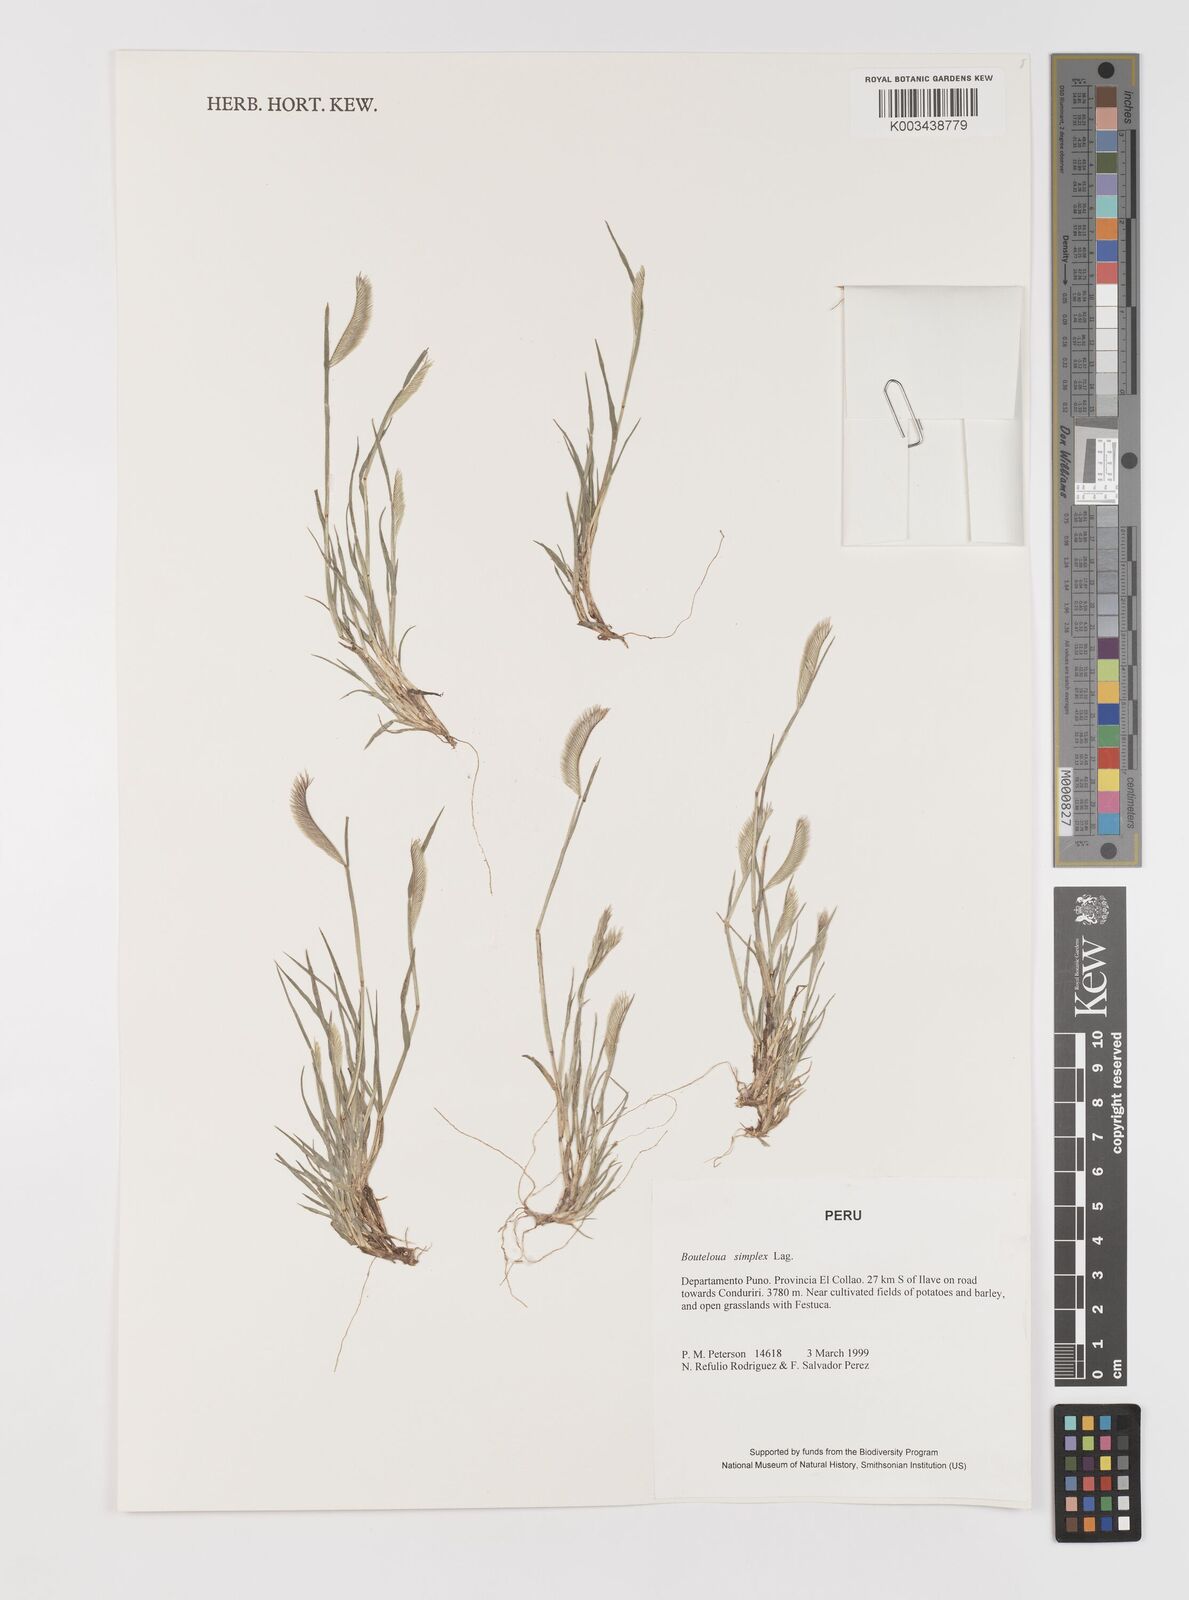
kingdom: Plantae
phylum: Tracheophyta
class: Liliopsida
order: Poales
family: Poaceae
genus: Bouteloua
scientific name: Bouteloua simplex
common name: Mat grama
